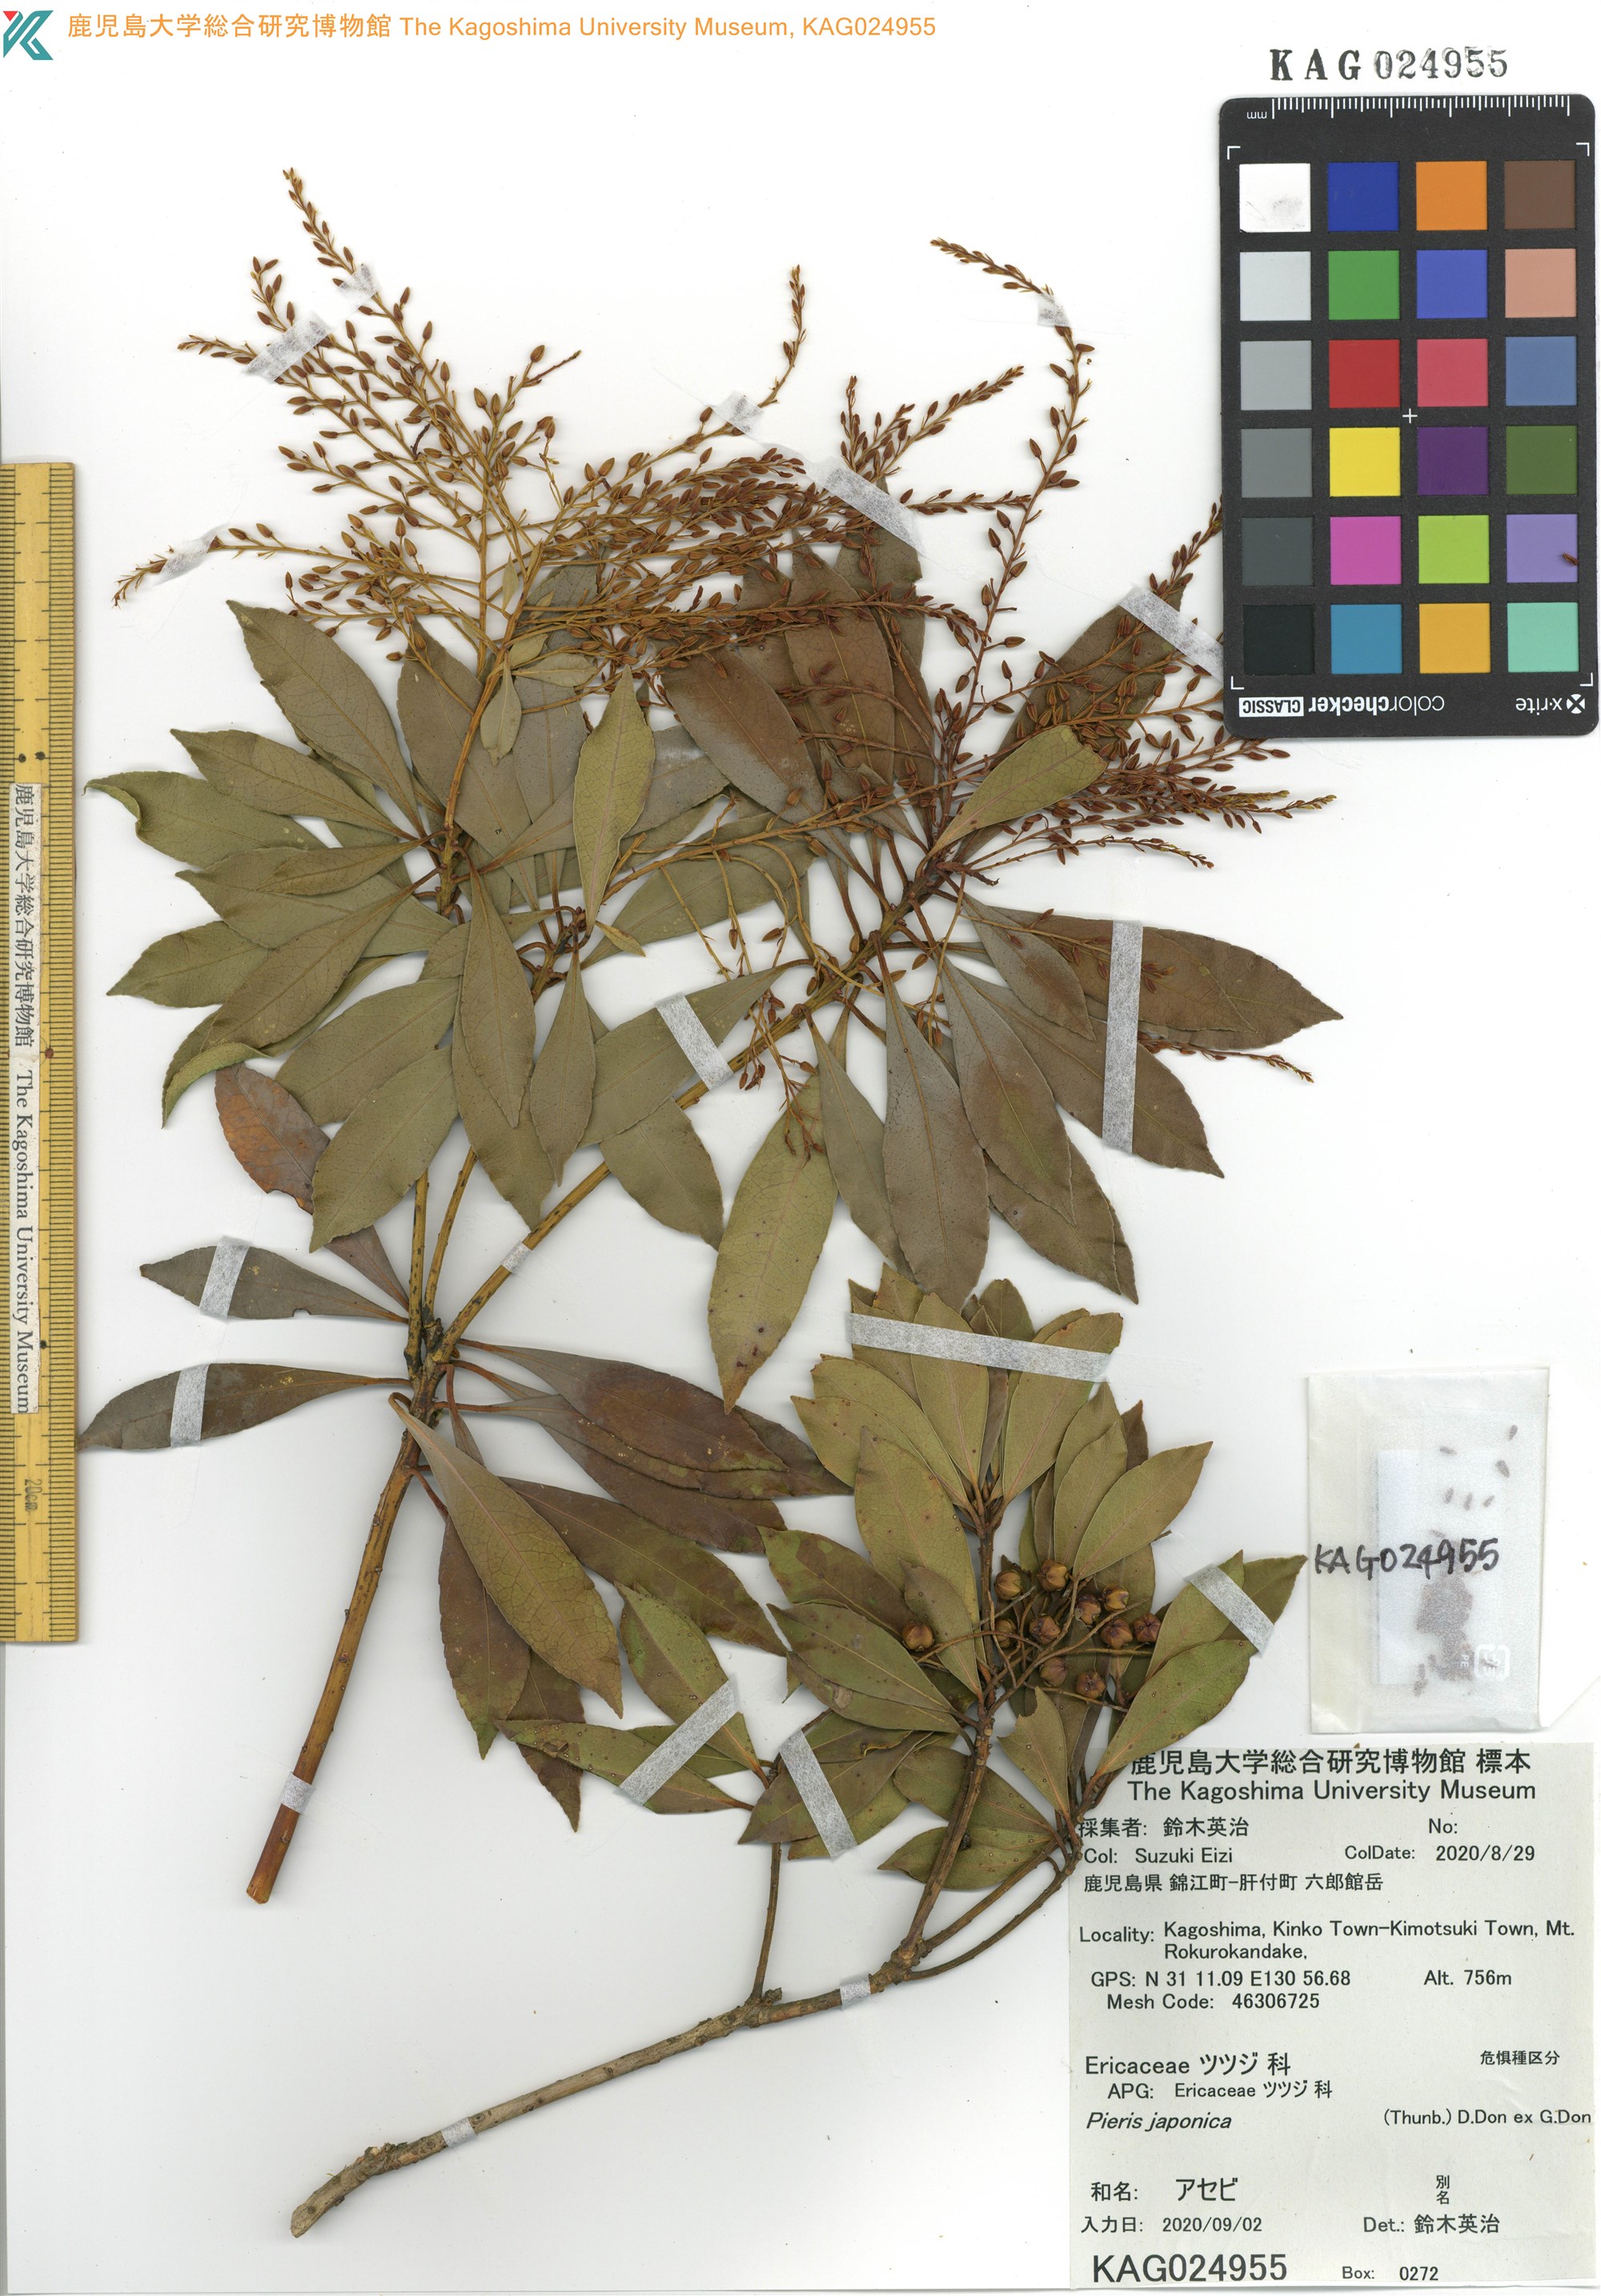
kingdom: Plantae
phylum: Tracheophyta
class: Magnoliopsida
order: Ericales
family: Ericaceae
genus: Pieris
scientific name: Pieris japonica
